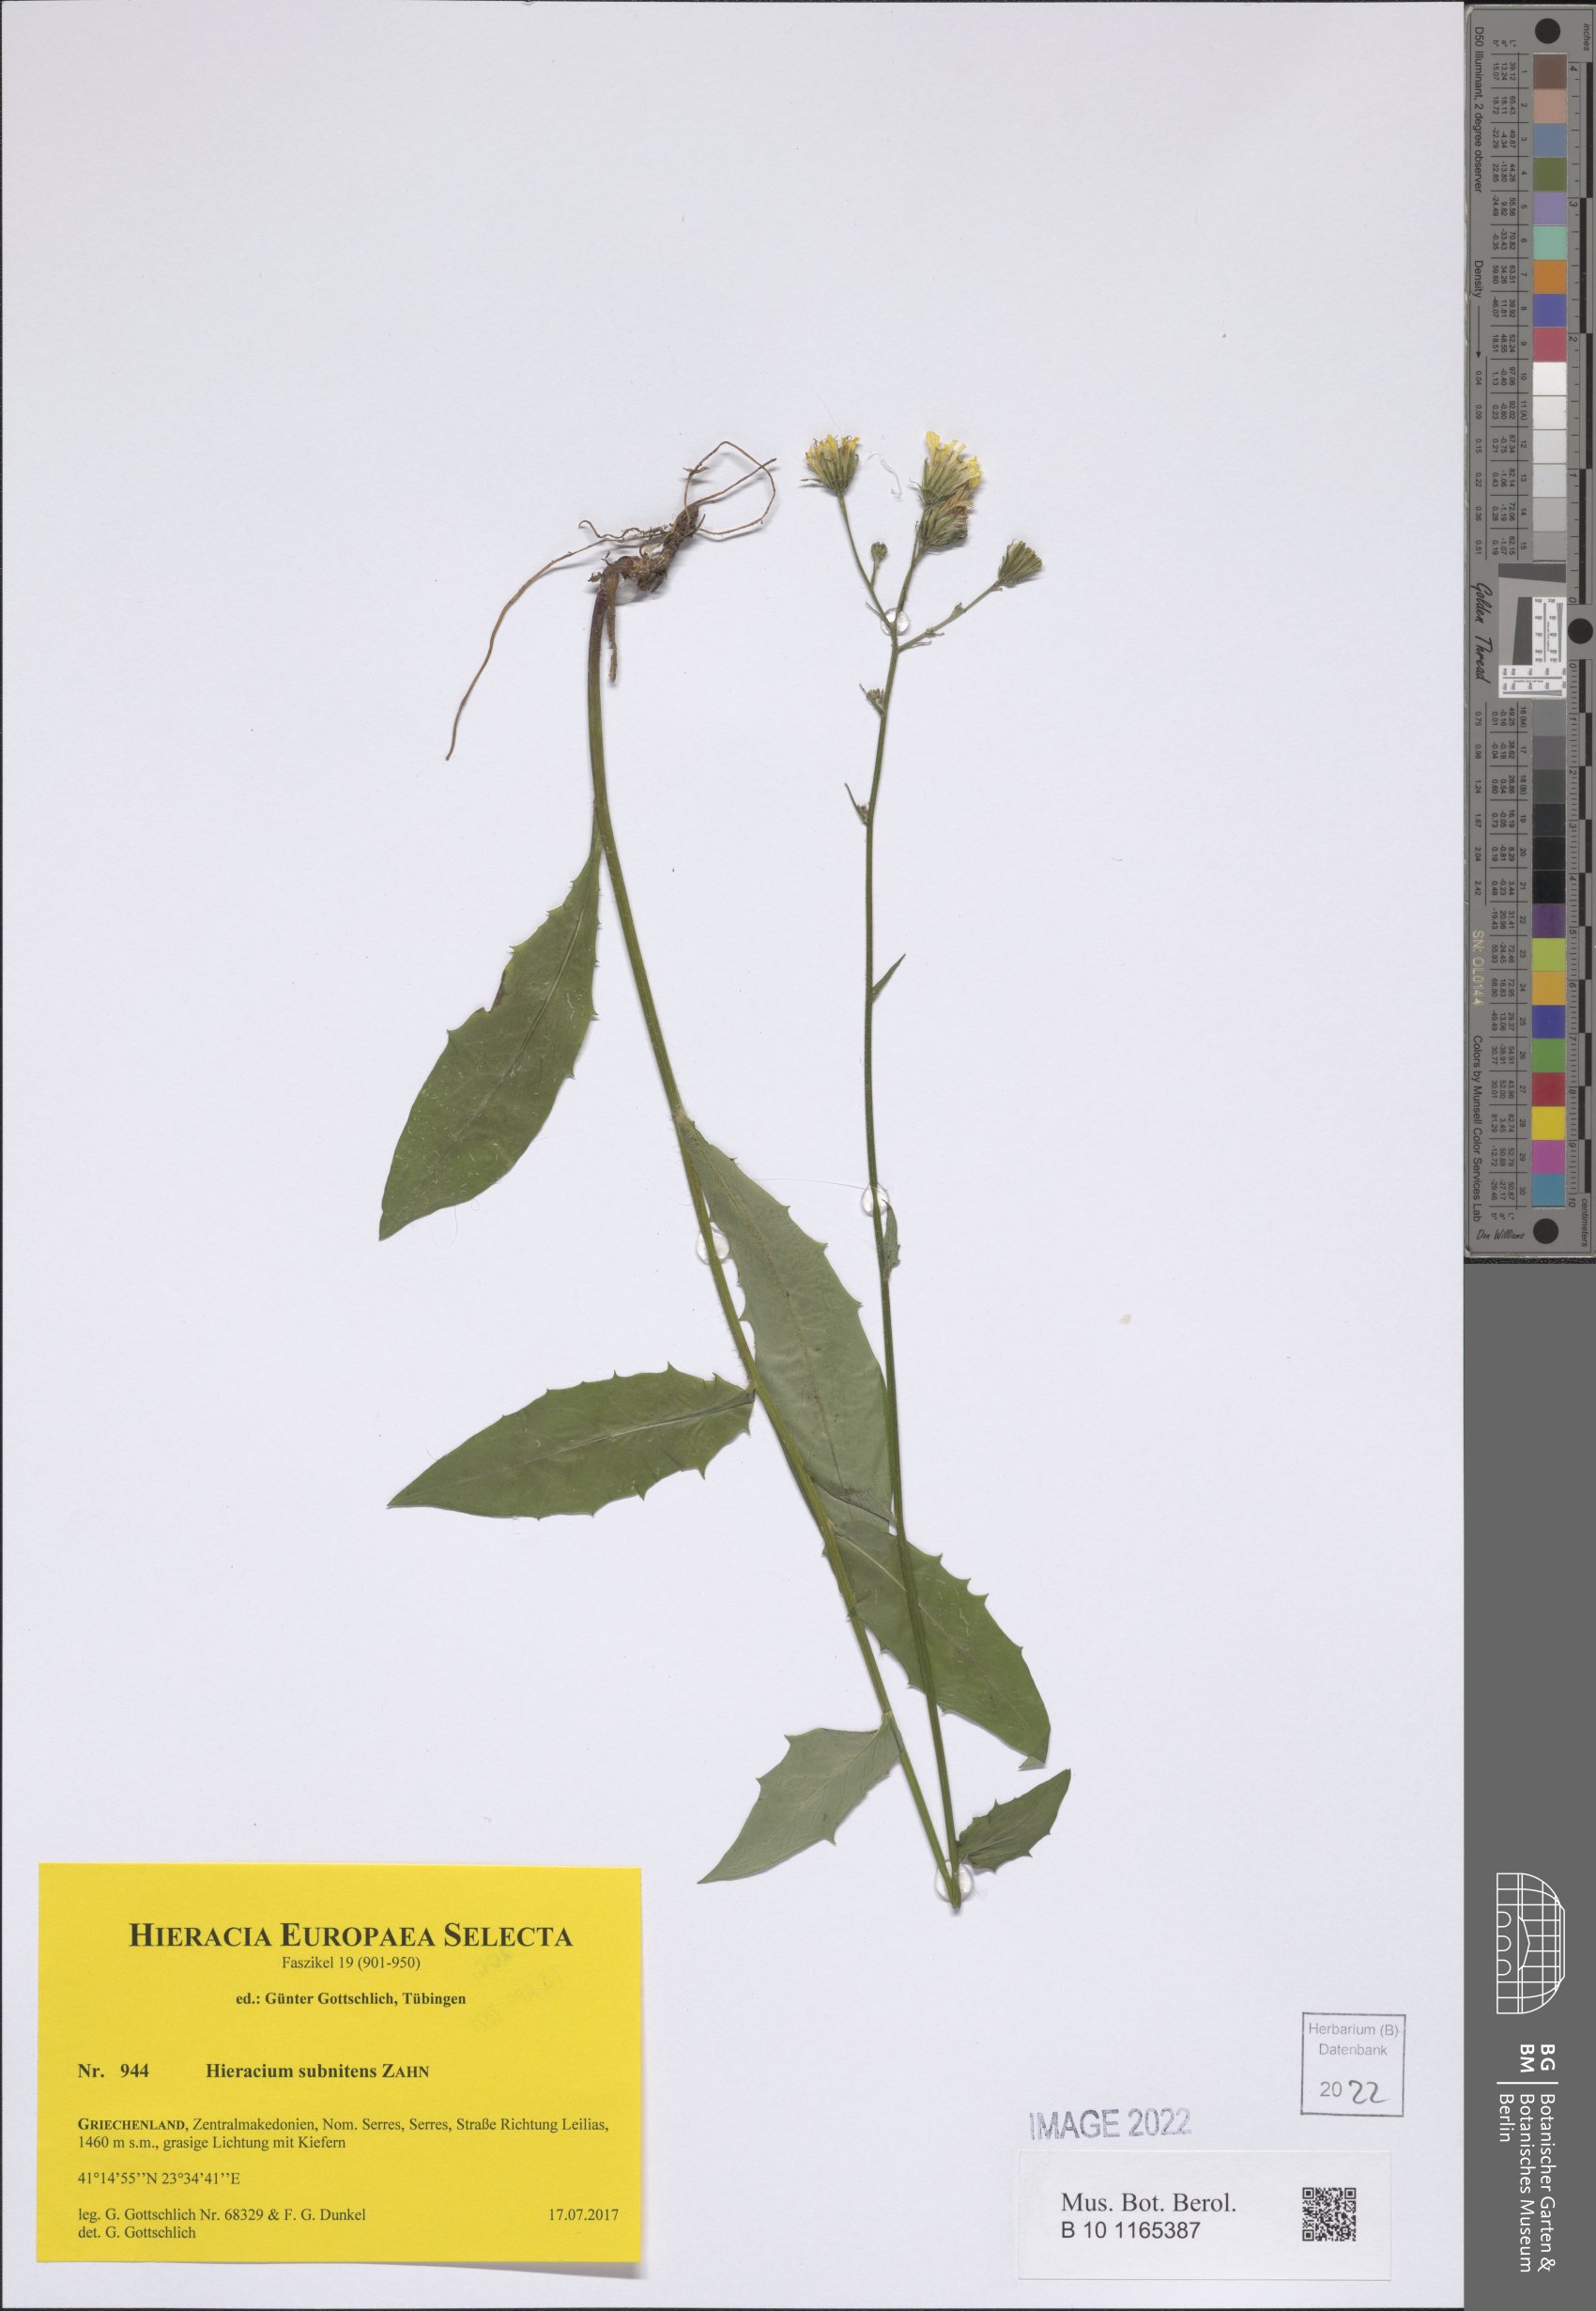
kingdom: Plantae
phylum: Tracheophyta
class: Magnoliopsida
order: Asterales
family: Asteraceae
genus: Hieracium
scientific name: Hieracium subnitens
